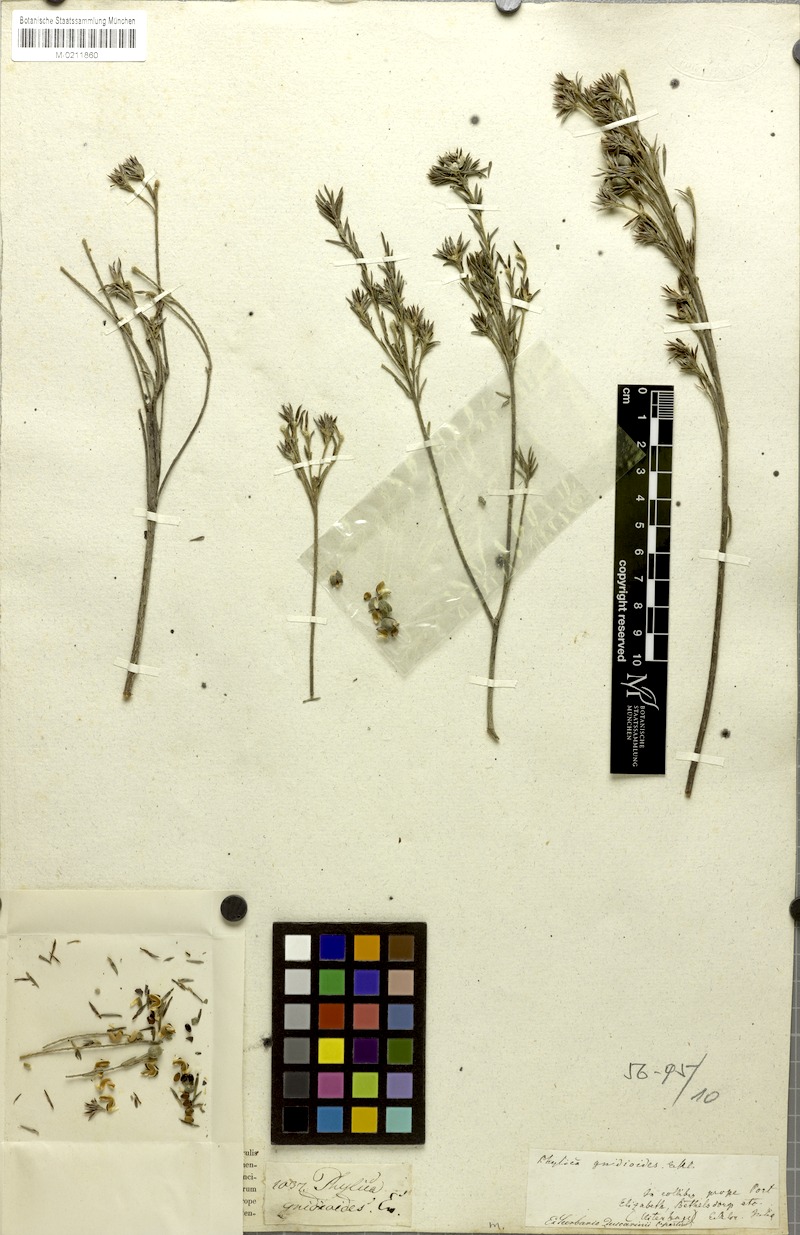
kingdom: Plantae
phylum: Tracheophyta
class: Magnoliopsida
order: Rosales
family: Rhamnaceae
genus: Phylica
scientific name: Phylica gnidioides
